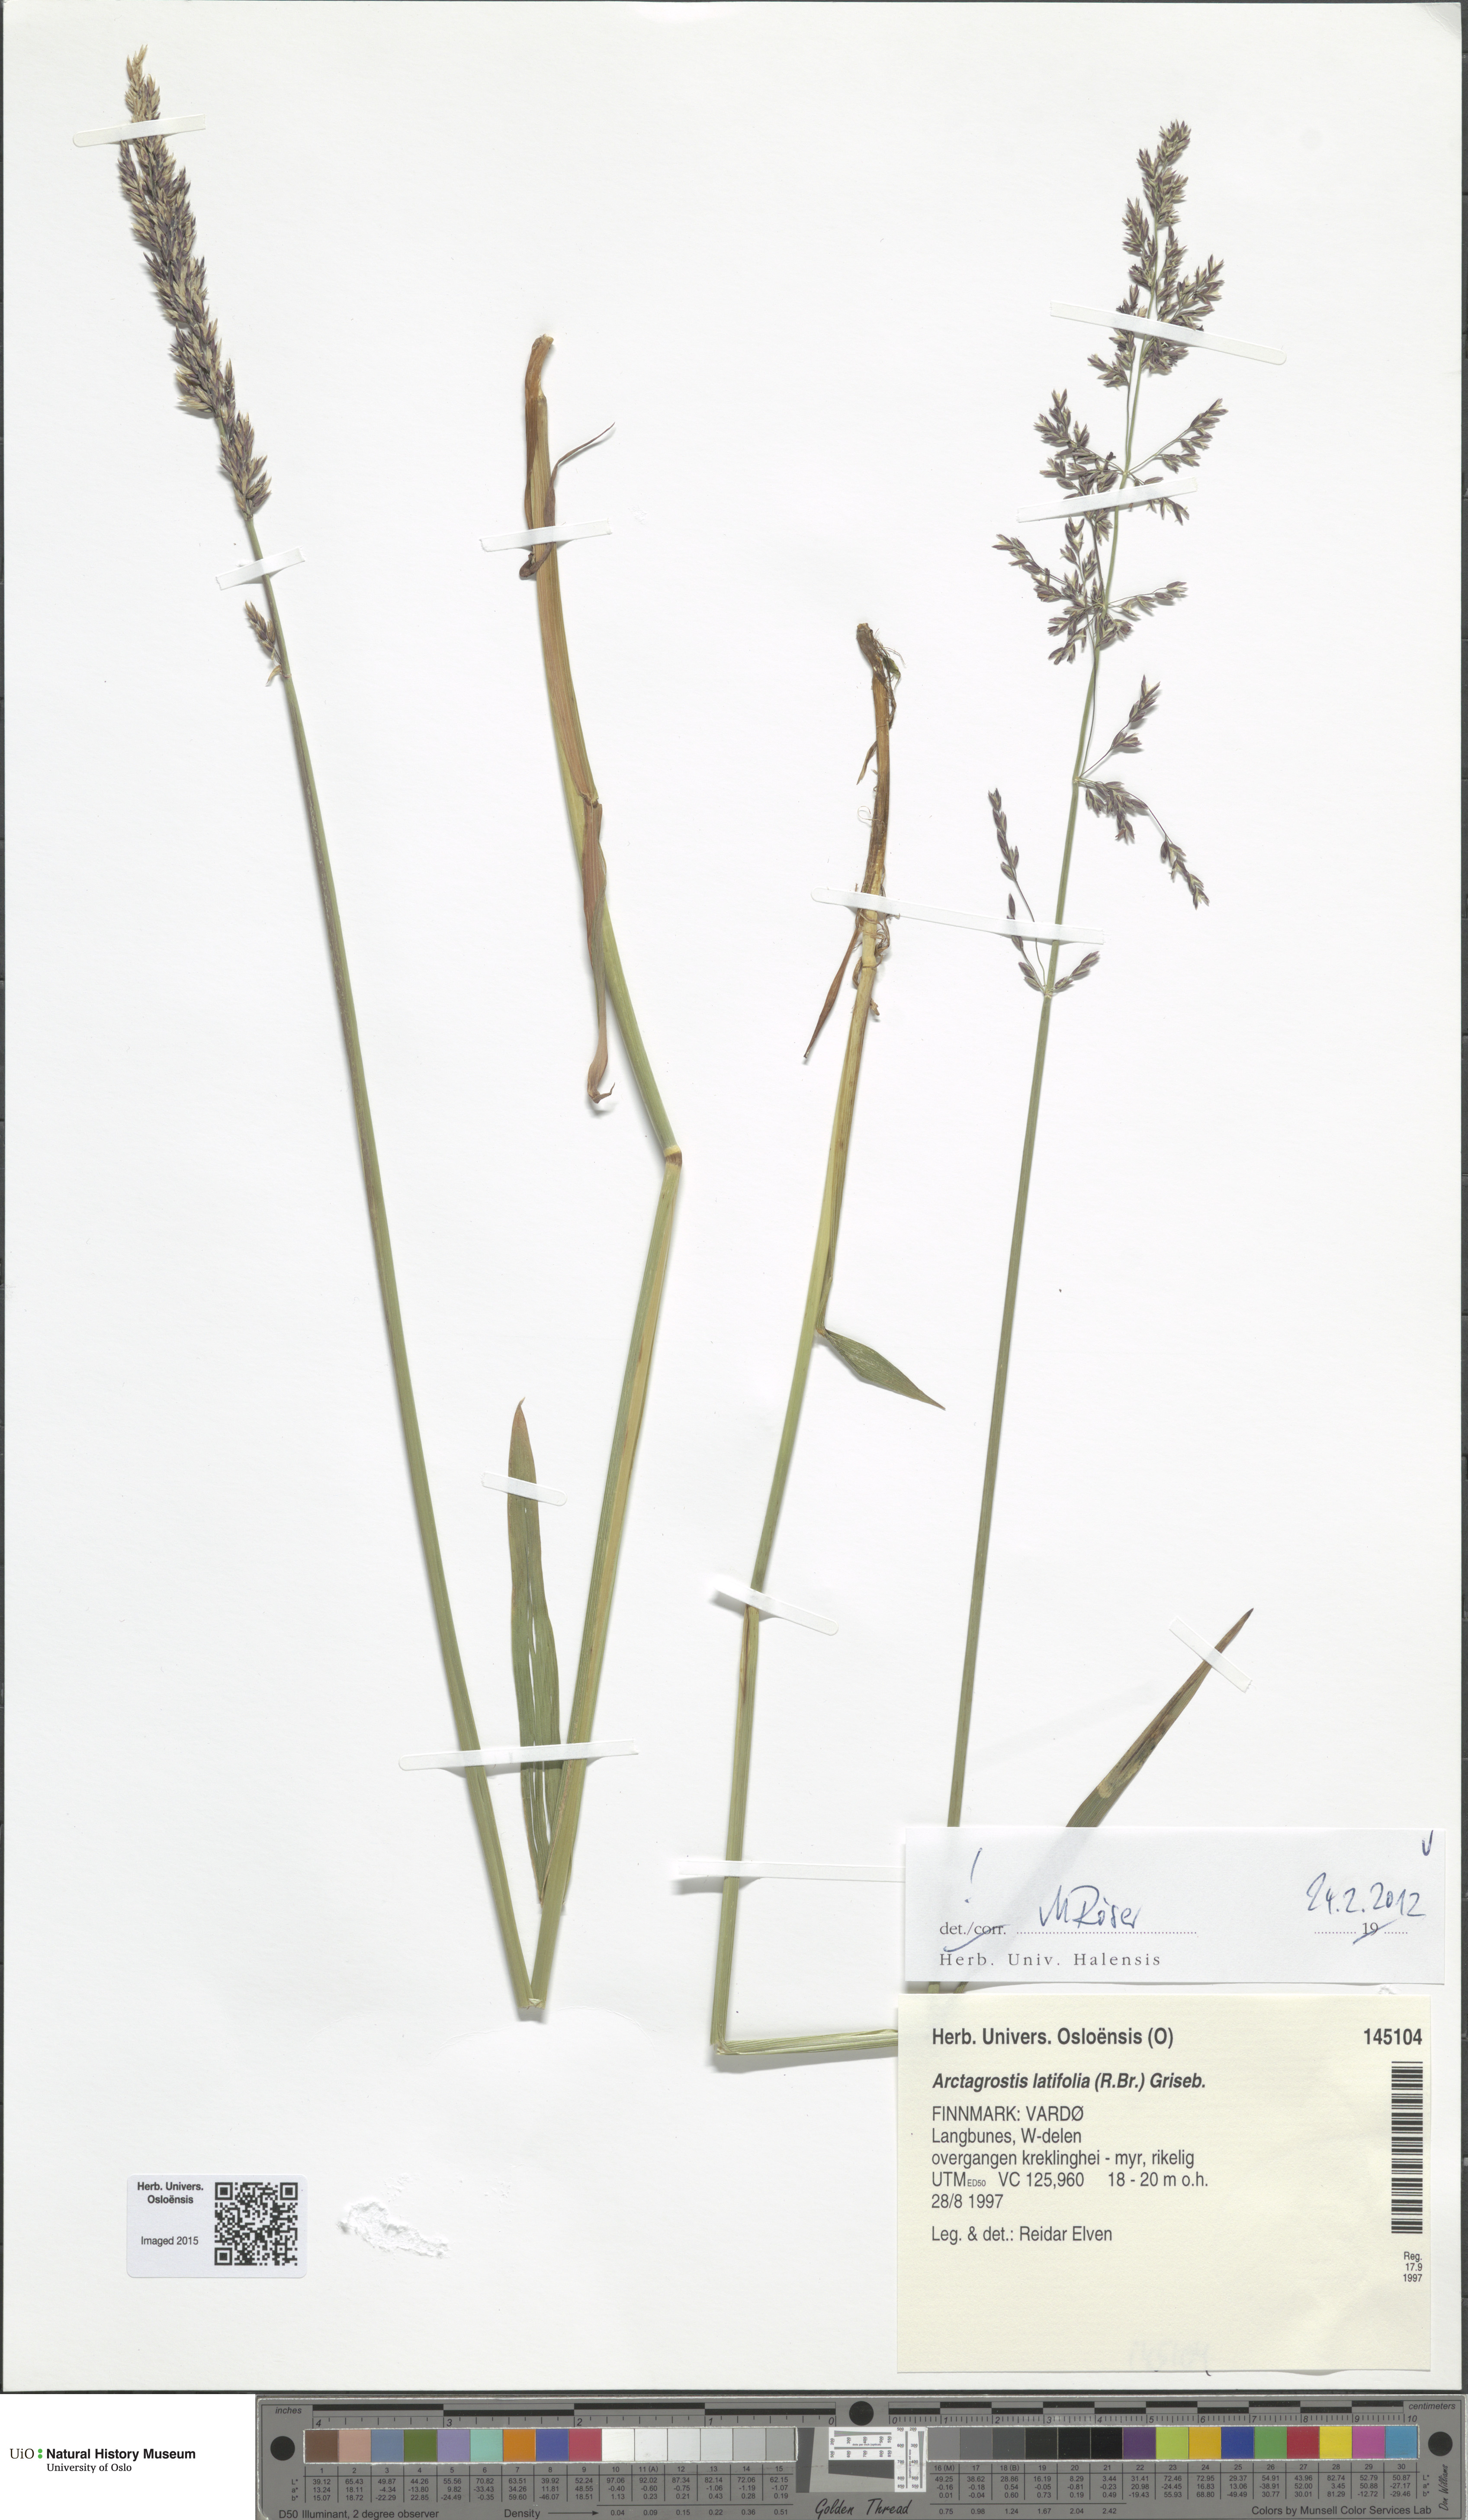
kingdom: Plantae
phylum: Tracheophyta
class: Liliopsida
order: Poales
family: Poaceae
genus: Arctagrostis
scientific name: Arctagrostis latifolia
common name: Arctic grass
